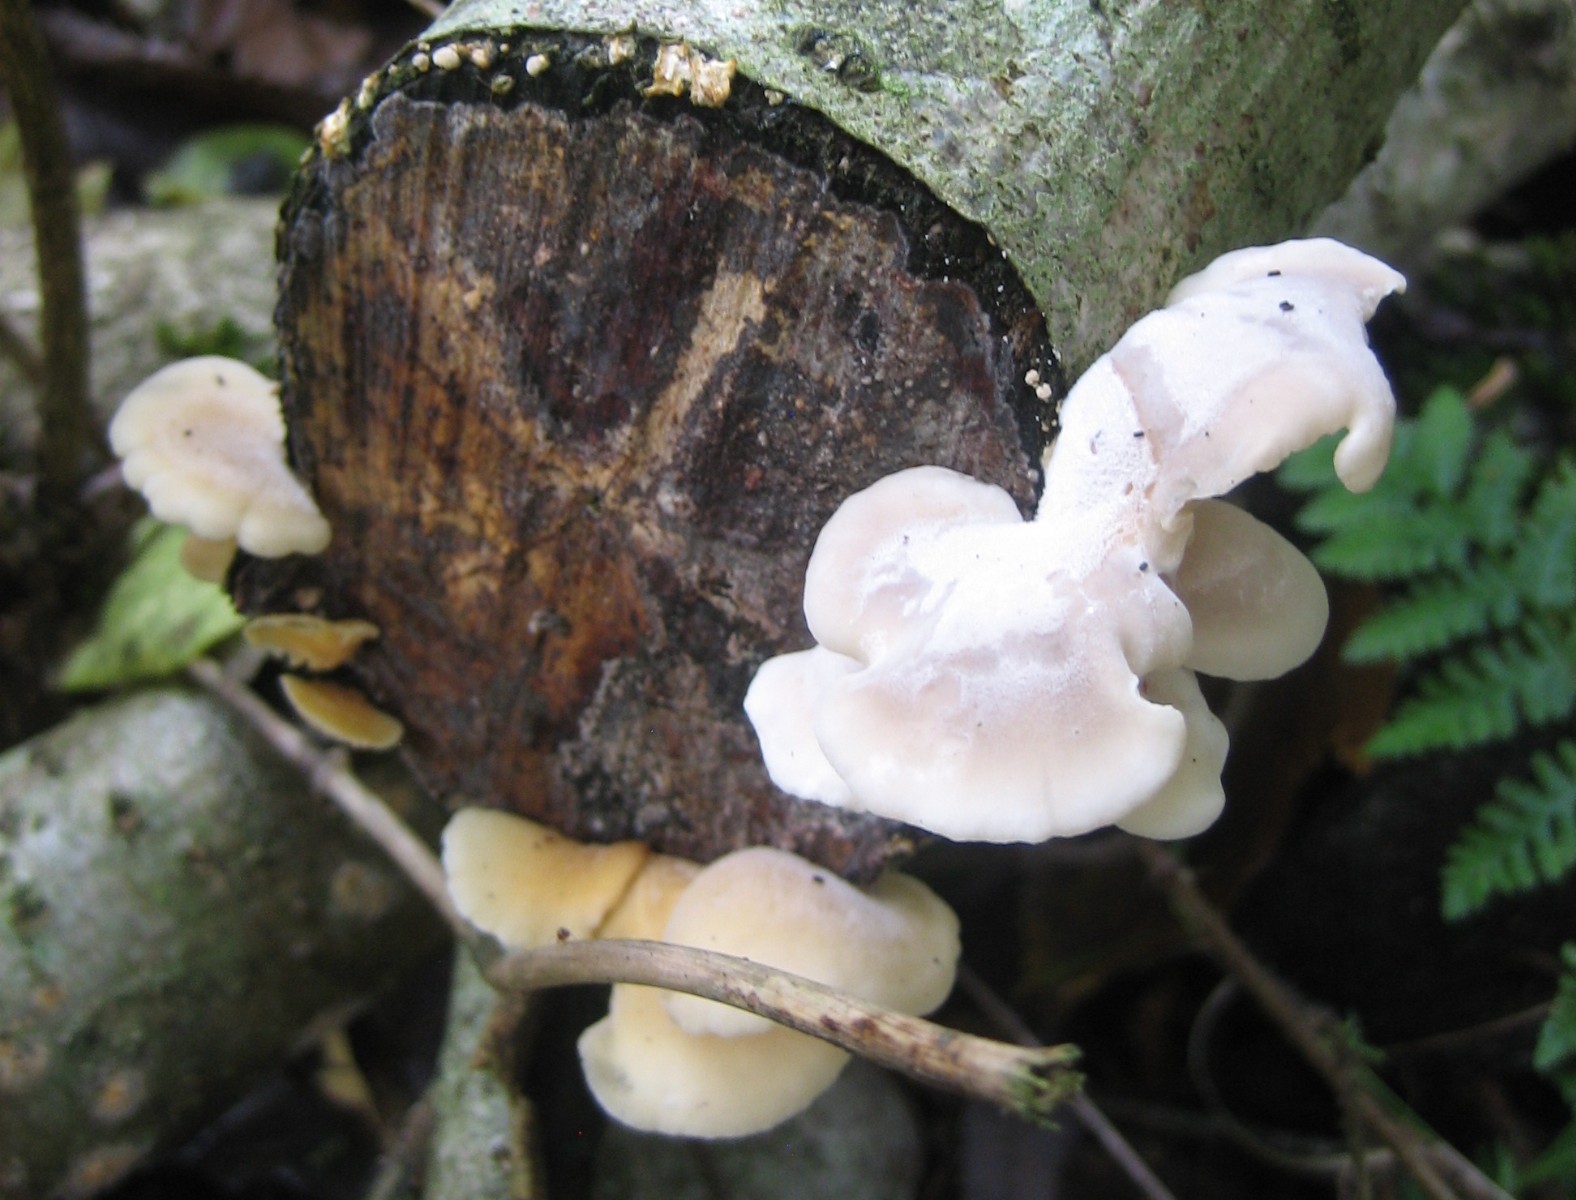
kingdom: Fungi
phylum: Basidiomycota
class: Agaricomycetes
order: Agaricales
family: Pleurotaceae
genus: Hohenbuehelia
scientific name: Hohenbuehelia
